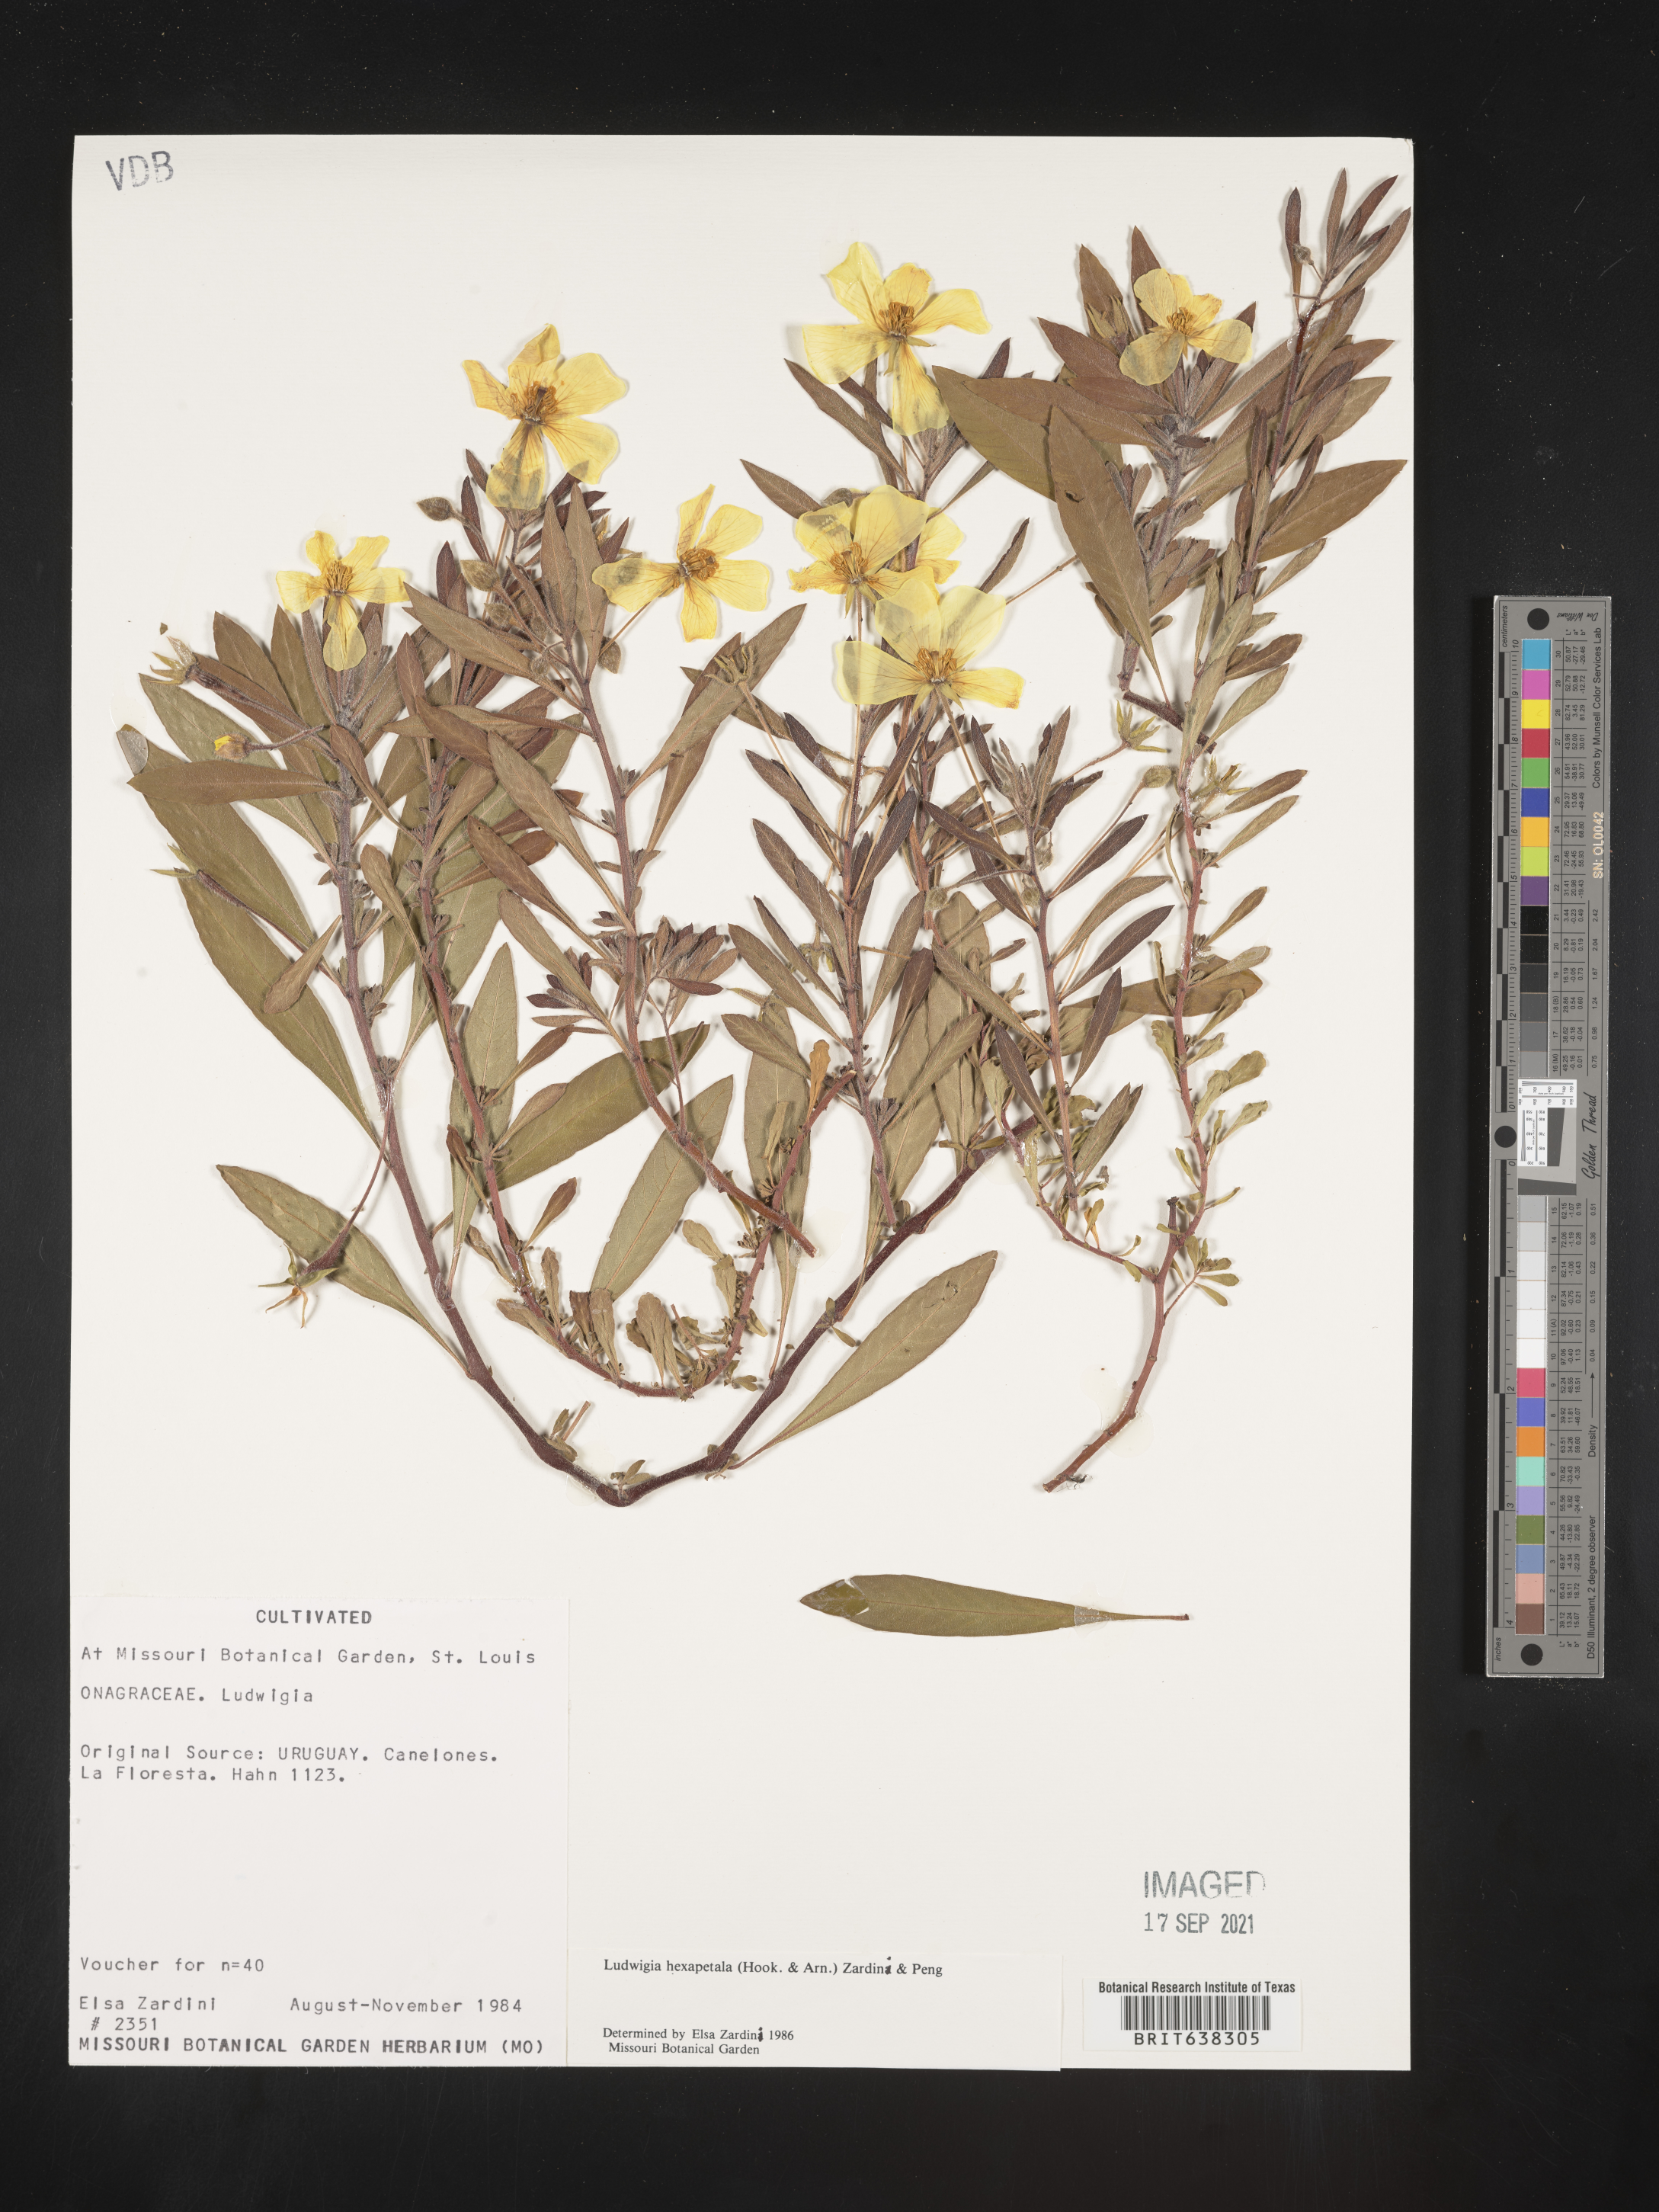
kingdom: Plantae
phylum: Tracheophyta
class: Magnoliopsida
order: Myrtales
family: Onagraceae
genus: Ludwigia
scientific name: Ludwigia
